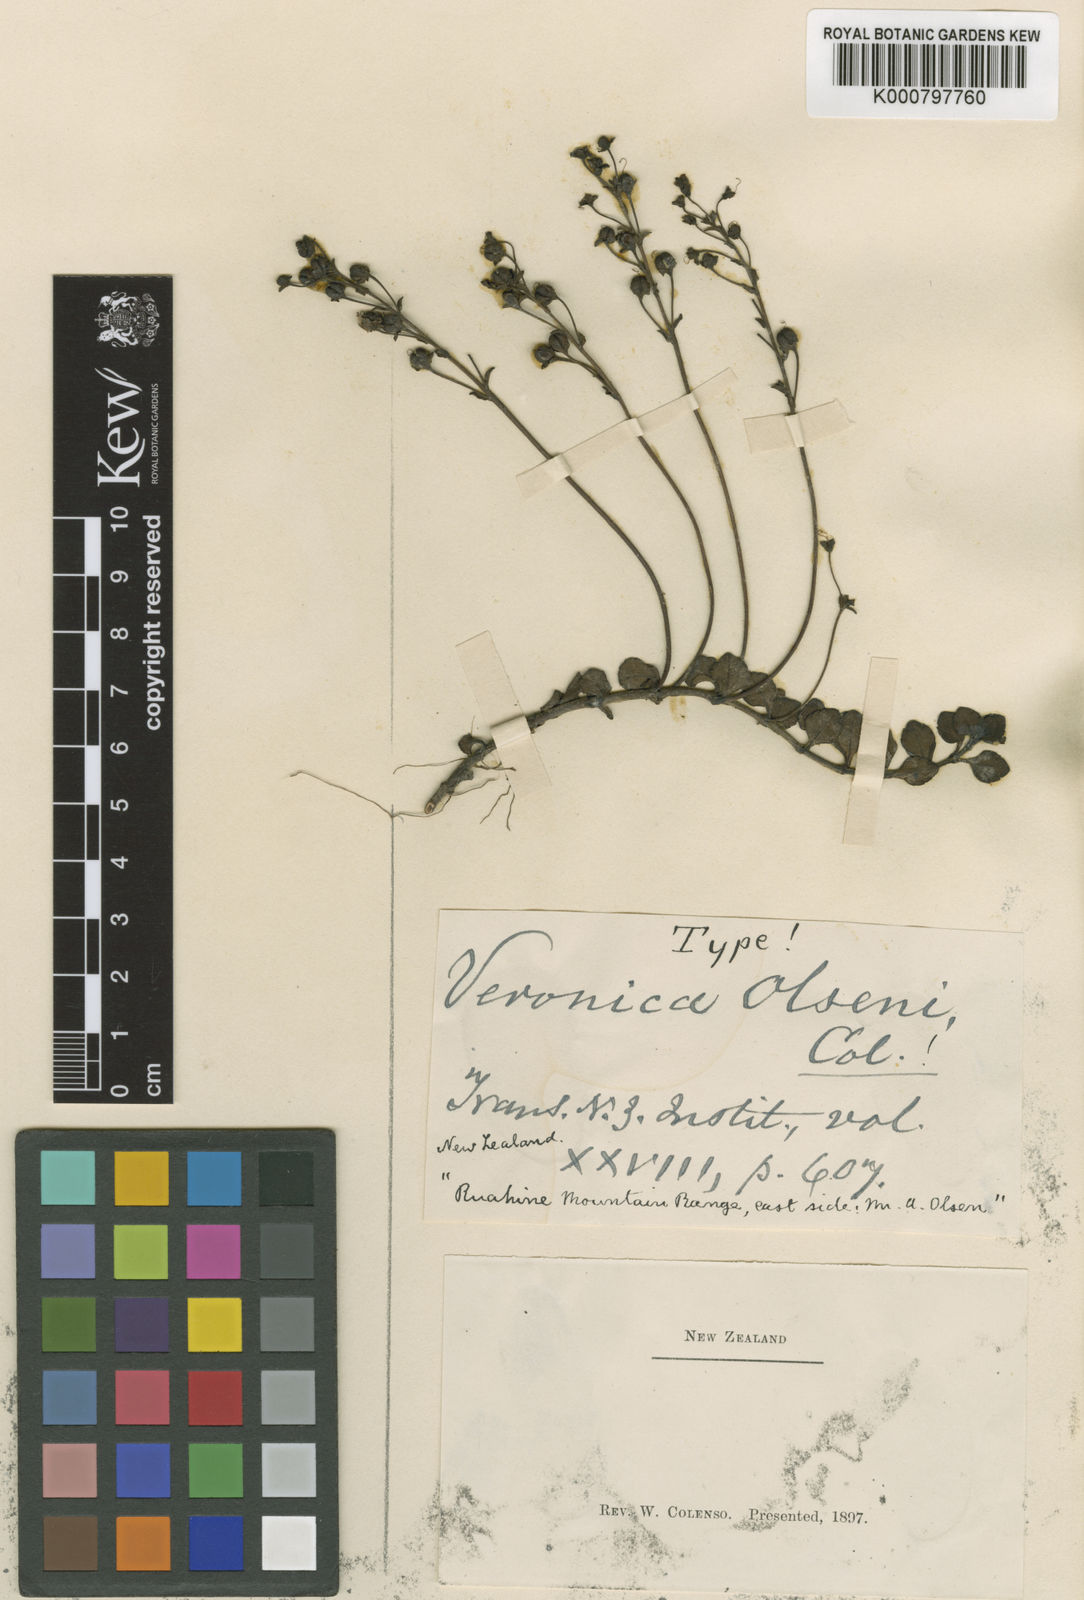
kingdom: Plantae
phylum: Tracheophyta
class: Magnoliopsida
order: Lamiales
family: Plantaginaceae
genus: Veronica
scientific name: Veronica
